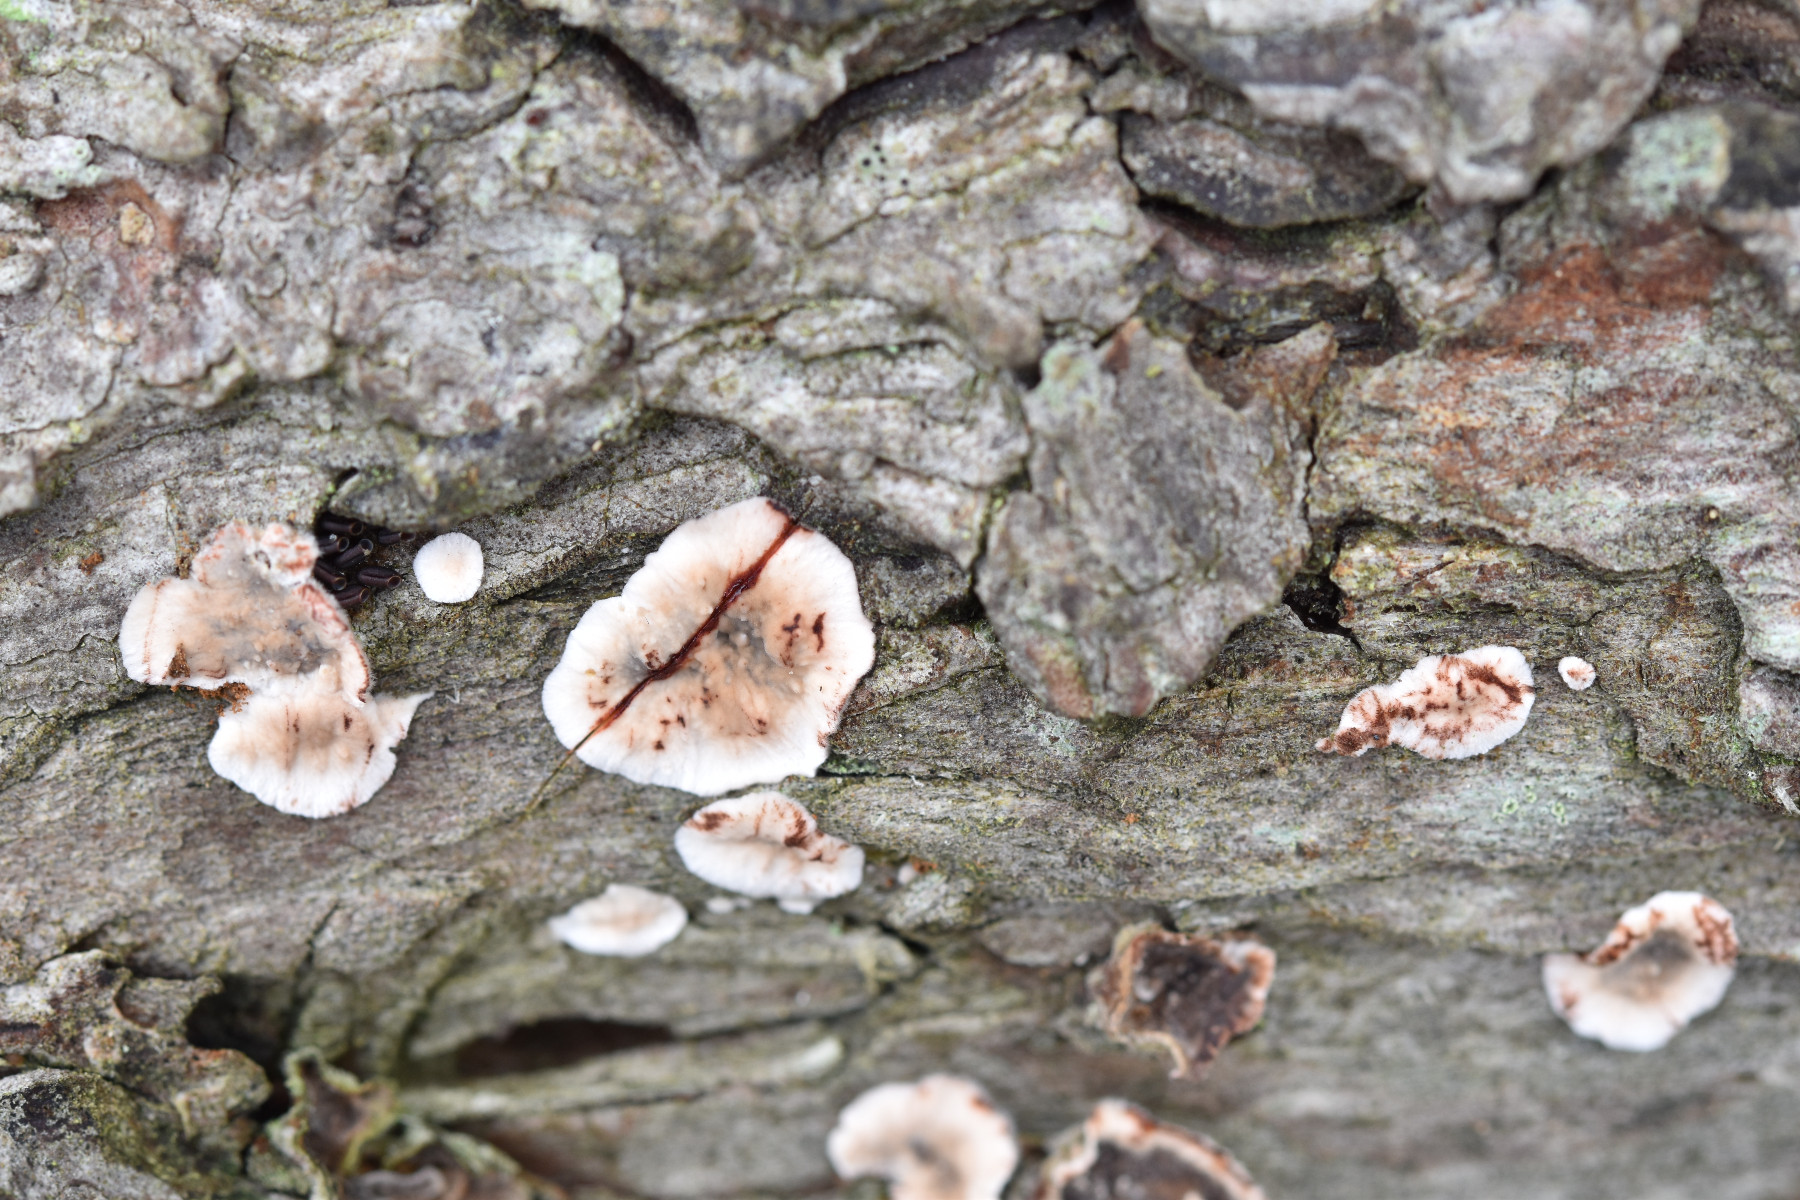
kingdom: Fungi
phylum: Basidiomycota
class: Agaricomycetes
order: Russulales
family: Stereaceae
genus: Stereum
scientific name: Stereum sanguinolentum
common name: blødende lædersvamp
